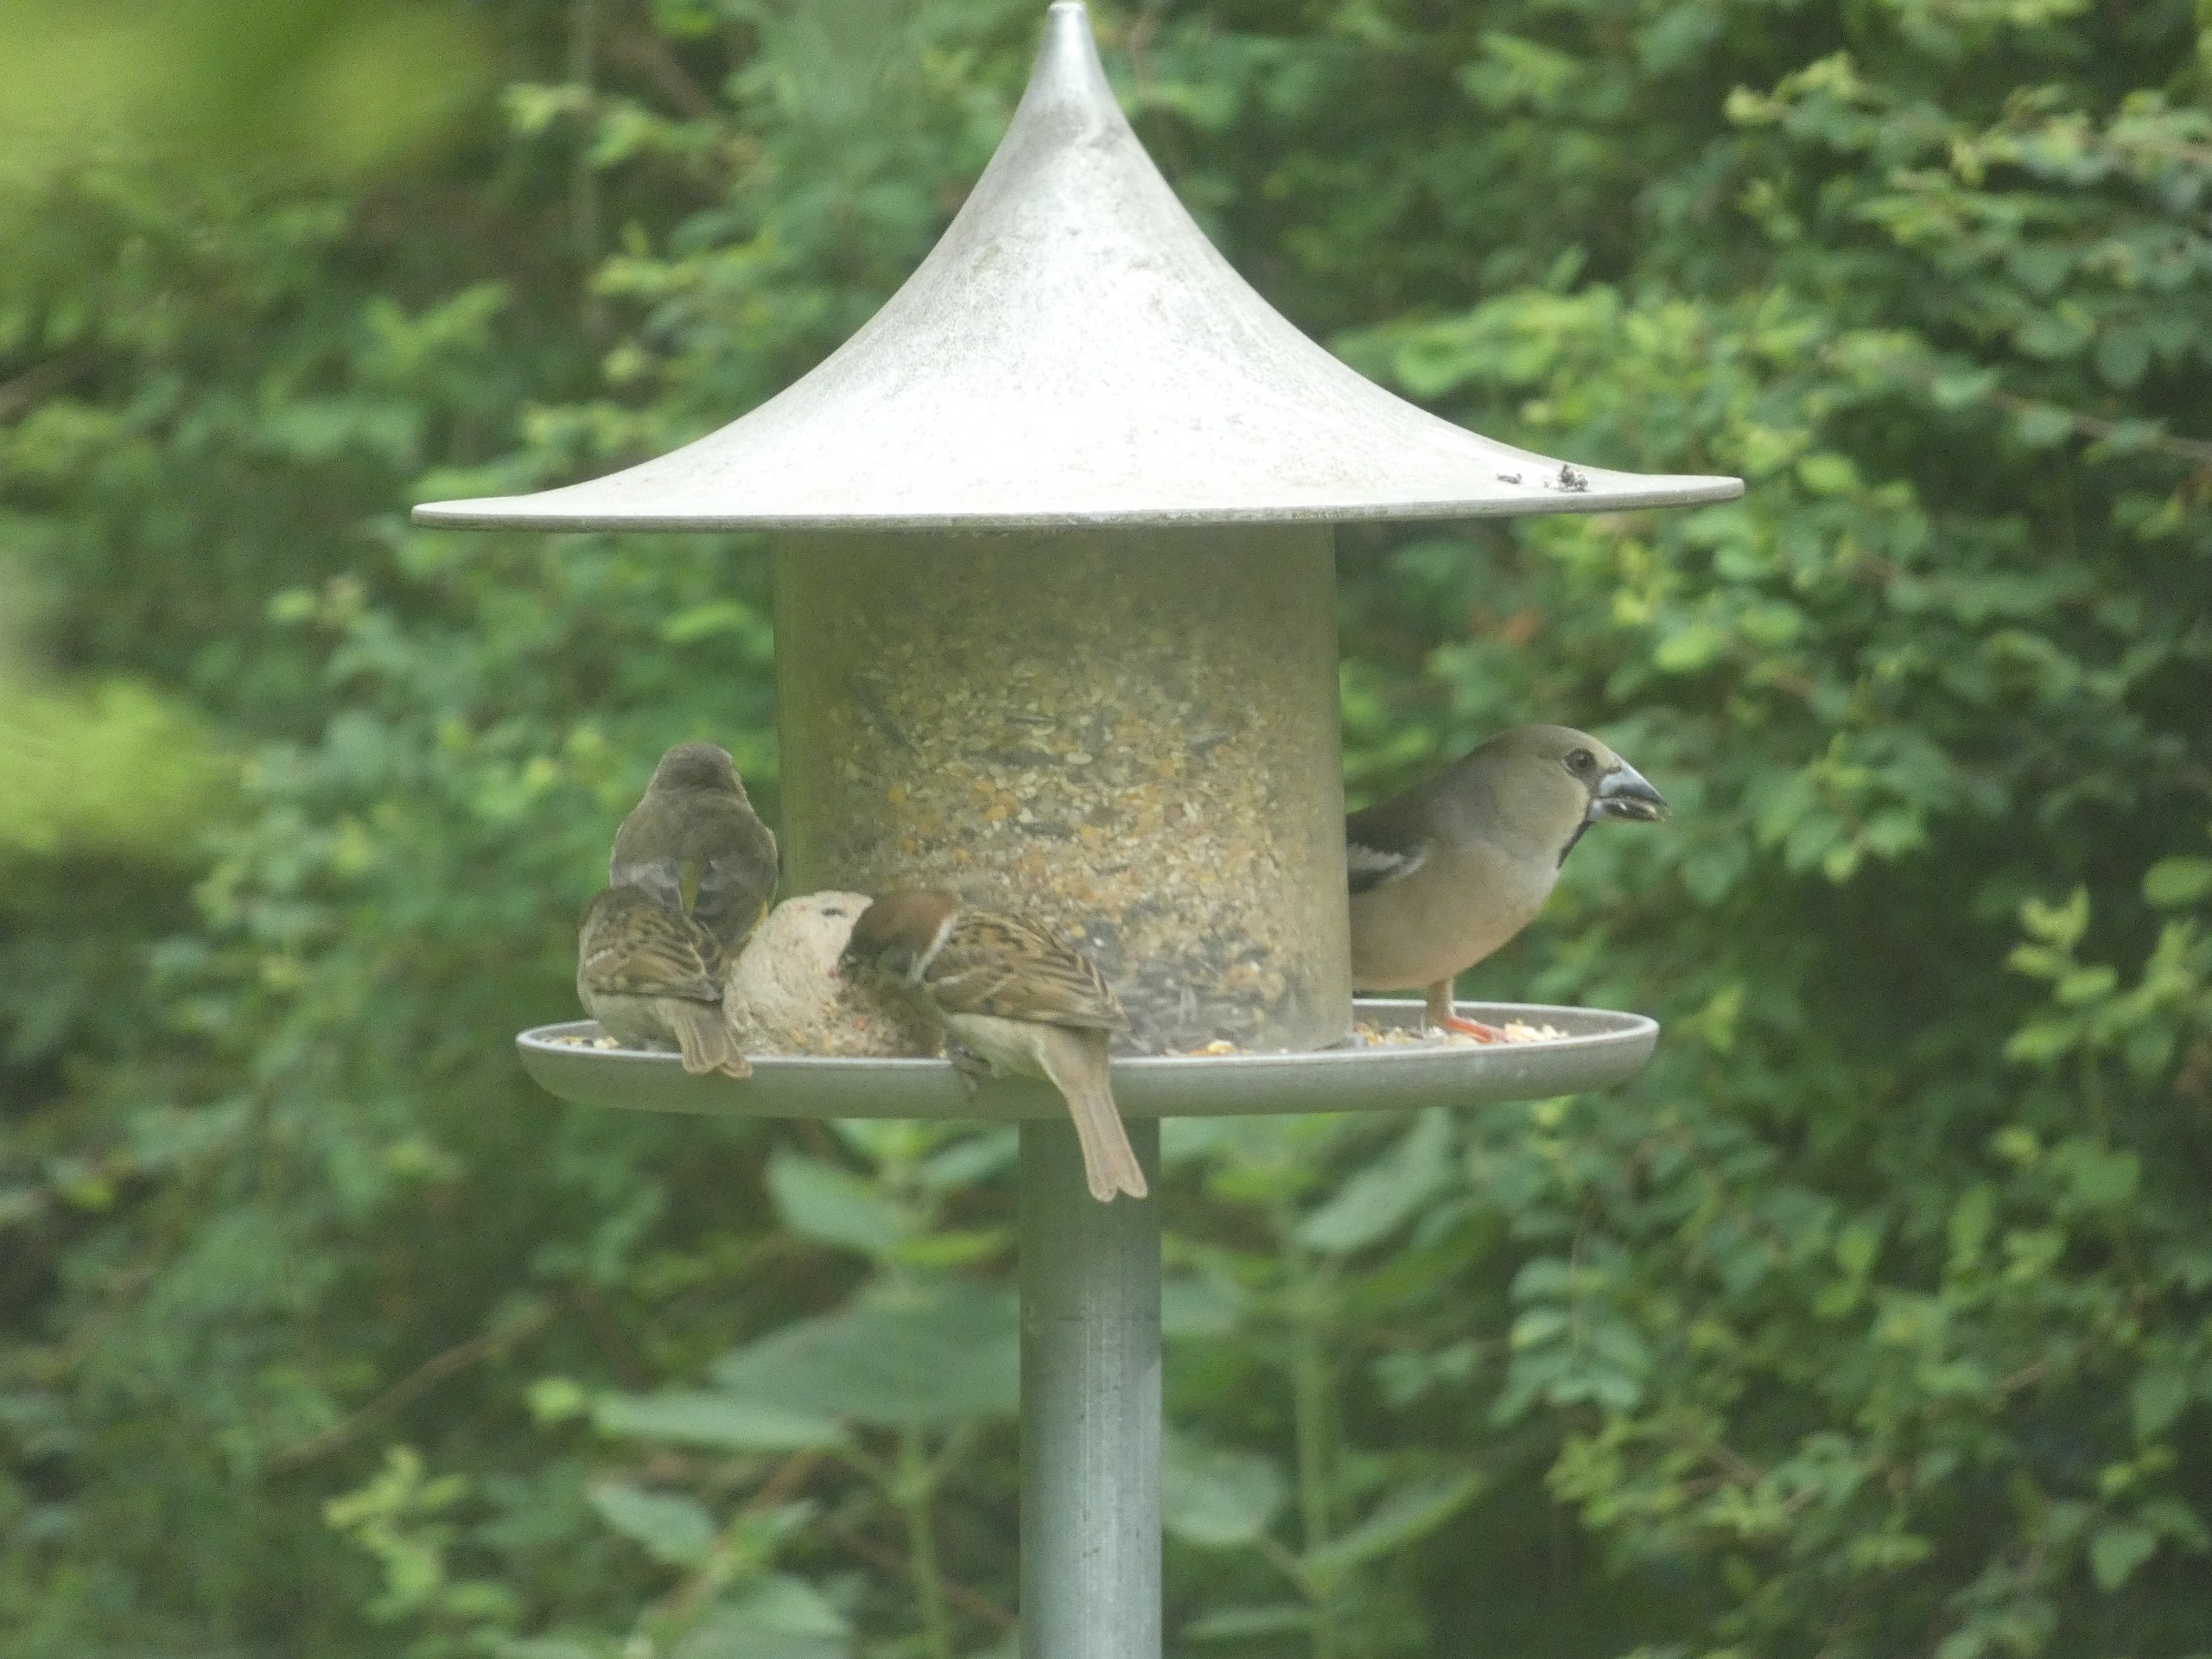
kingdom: Animalia
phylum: Chordata
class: Aves
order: Passeriformes
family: Fringillidae
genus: Coccothraustes
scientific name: Coccothraustes coccothraustes
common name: Kernebider
